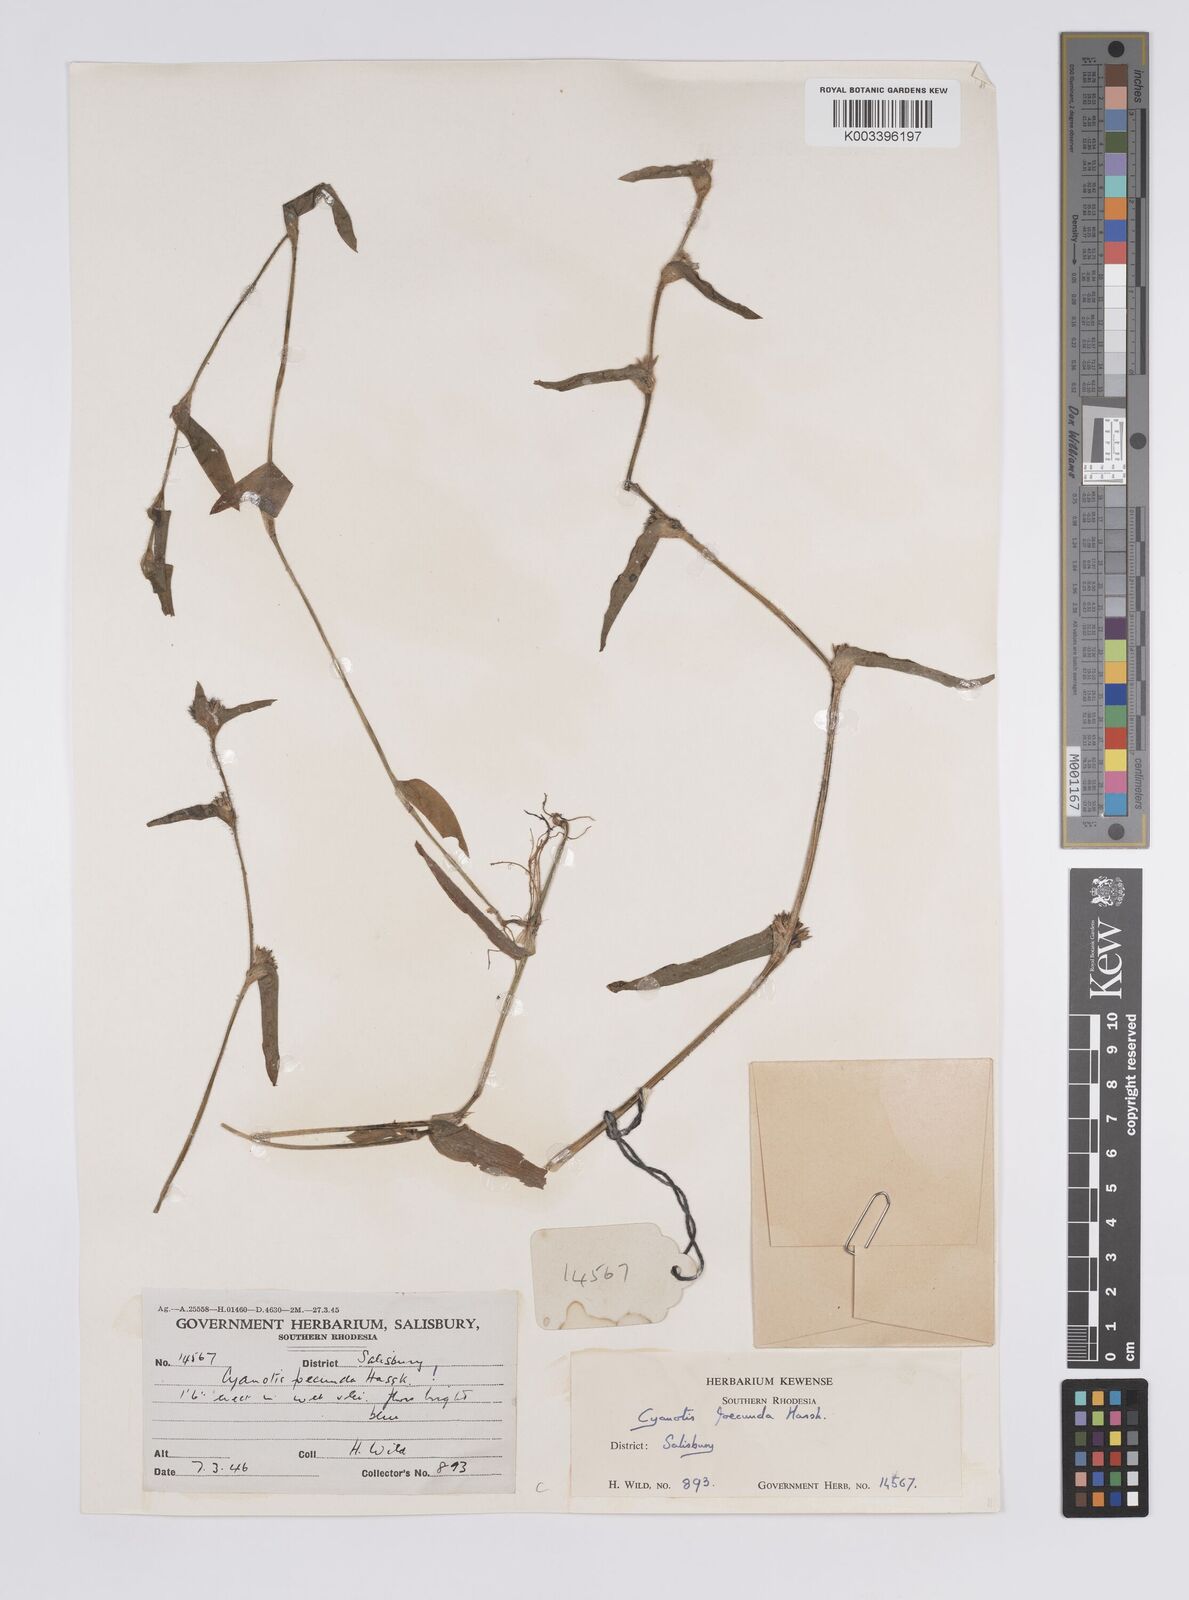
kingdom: Plantae
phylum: Tracheophyta
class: Liliopsida
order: Commelinales
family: Commelinaceae
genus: Cyanotis
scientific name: Cyanotis foecunda
